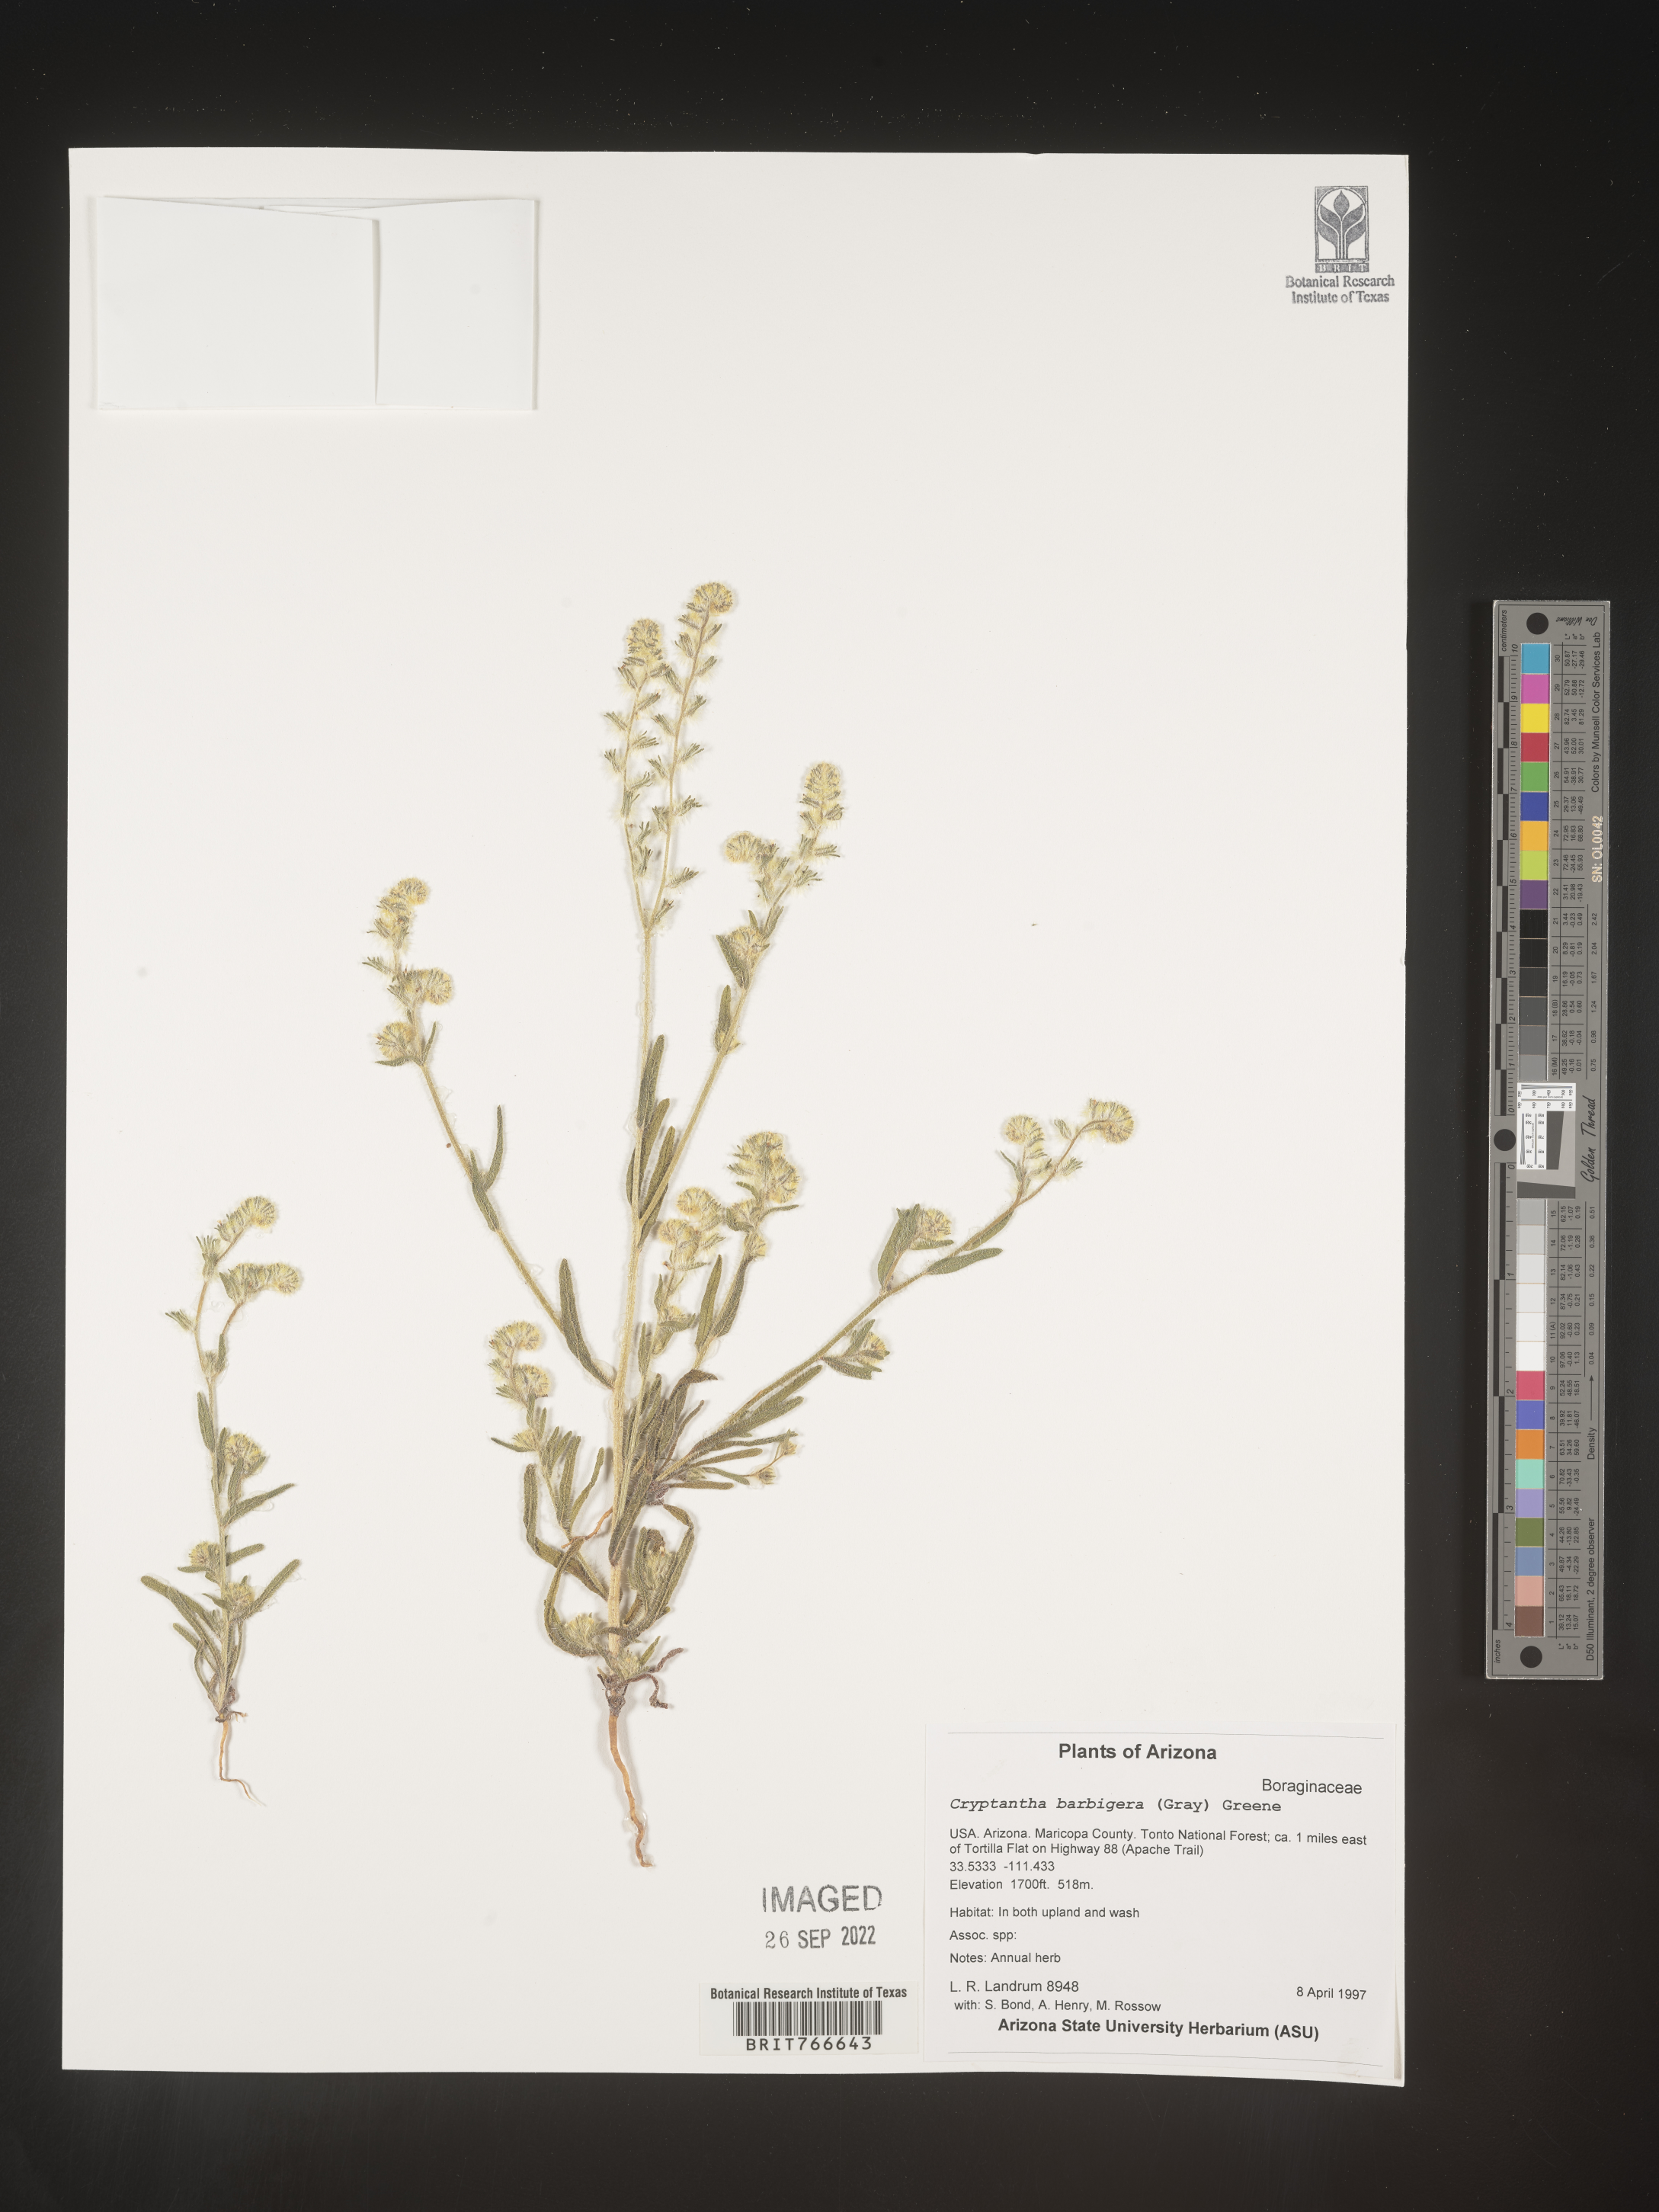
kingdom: Plantae
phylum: Tracheophyta
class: Magnoliopsida
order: Boraginales
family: Boraginaceae
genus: Cryptantha
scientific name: Cryptantha
